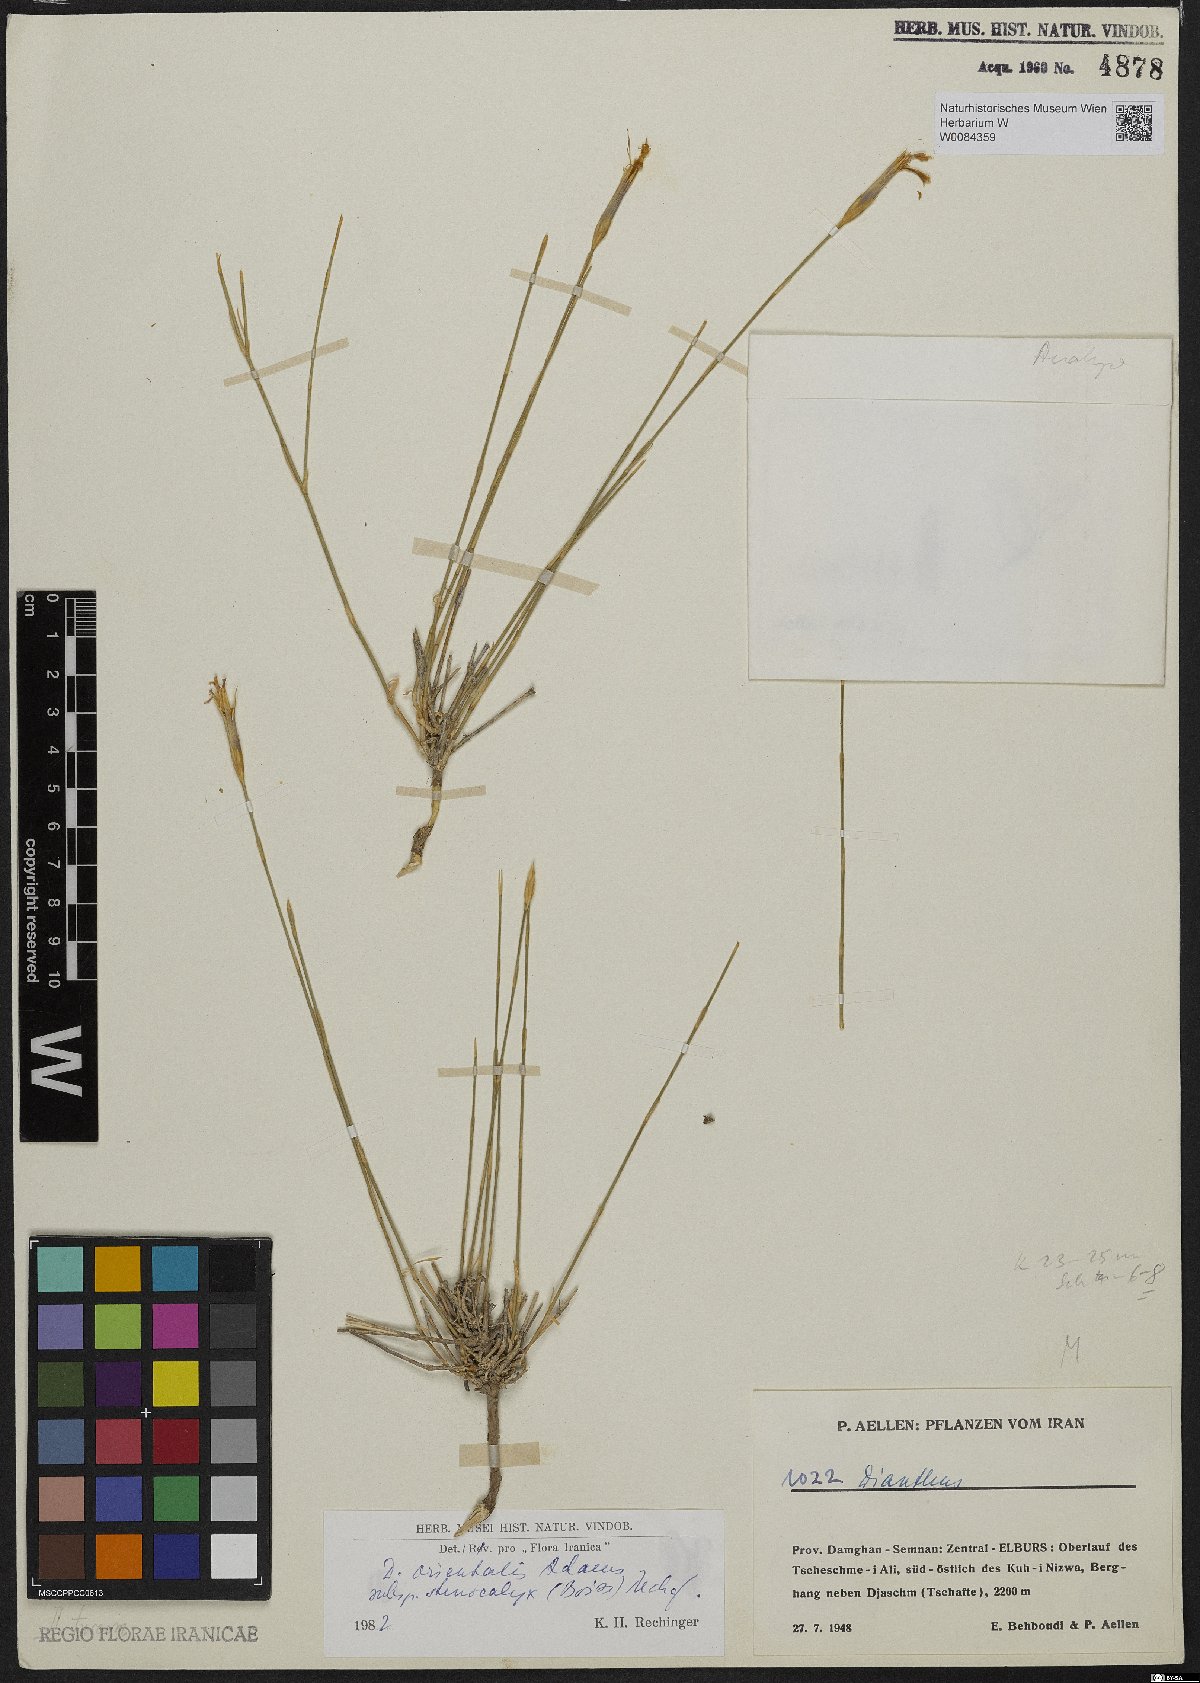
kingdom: Plantae
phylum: Tracheophyta
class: Magnoliopsida
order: Caryophyllales
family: Caryophyllaceae
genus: Dianthus
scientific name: Dianthus orientalis
